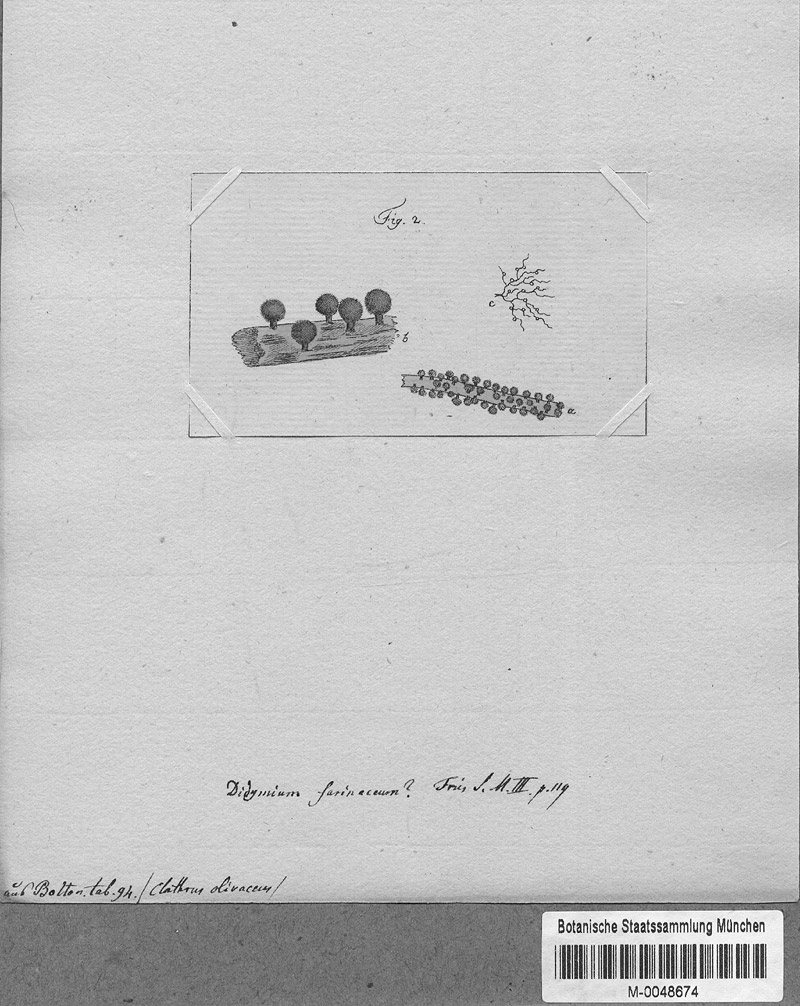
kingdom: Protozoa
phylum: Mycetozoa
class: Myxomycetes
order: Physarales
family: Didymiaceae
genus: Didymium
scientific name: Didymium melanospermum
